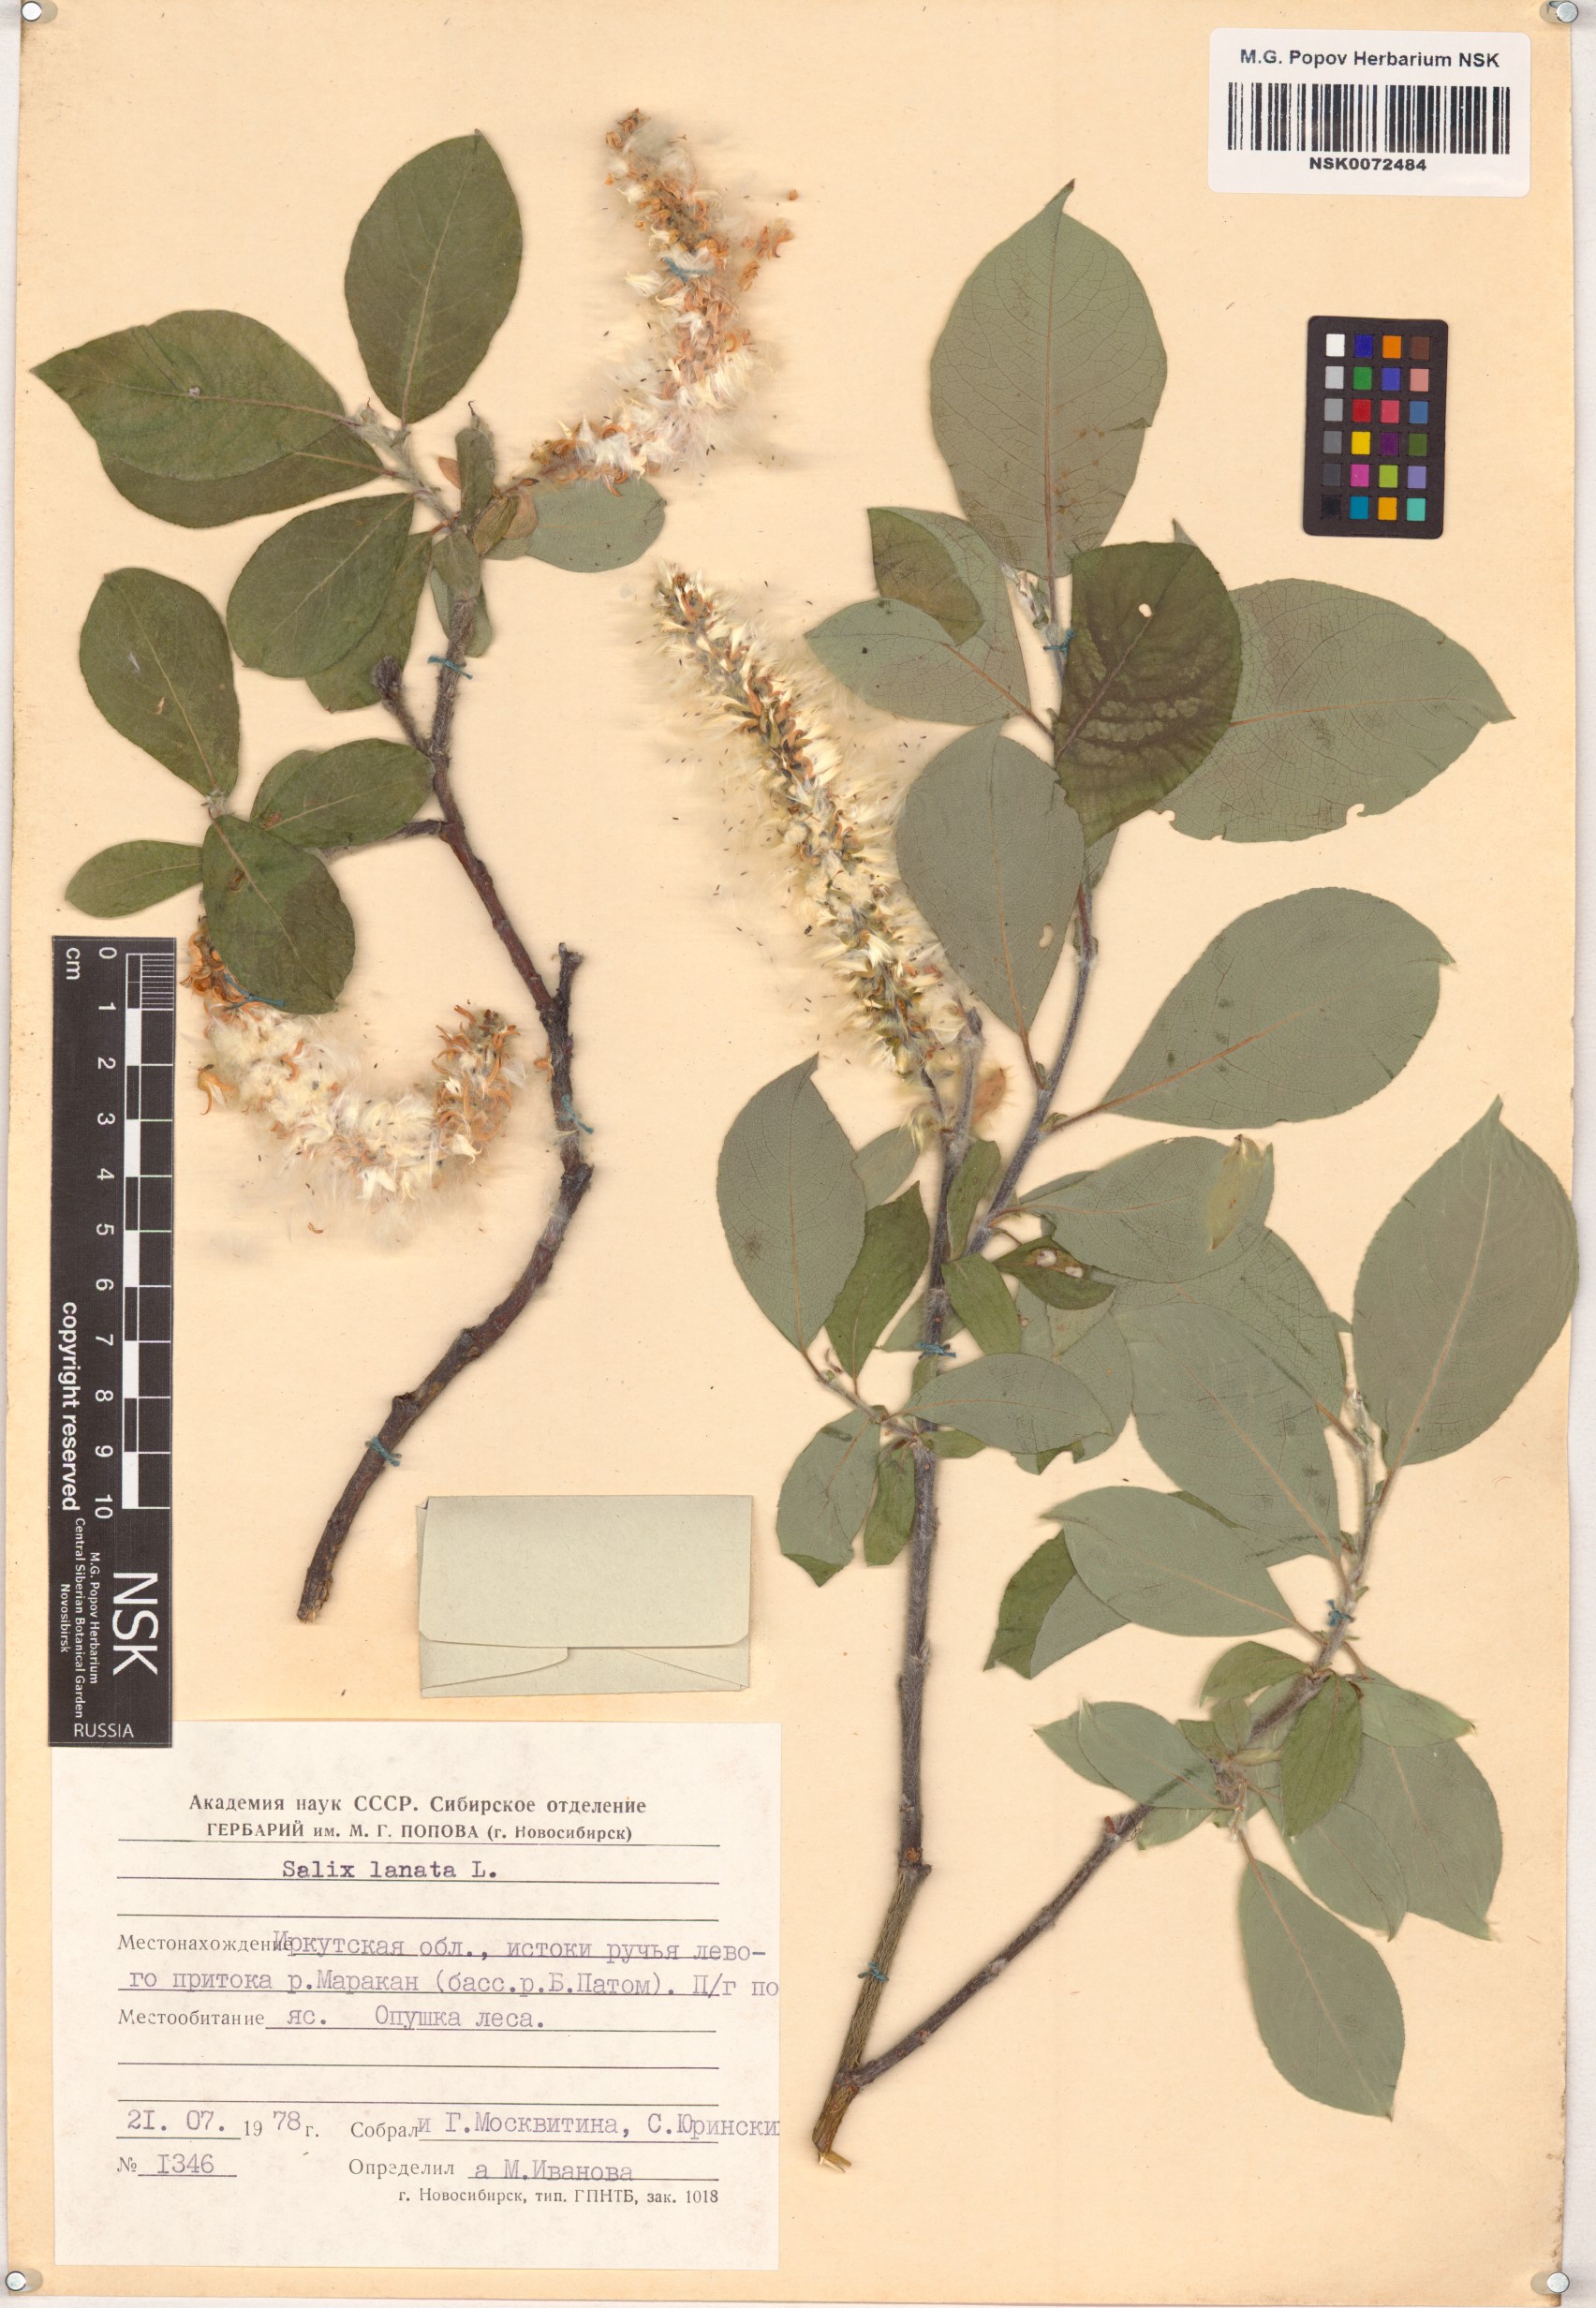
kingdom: Plantae
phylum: Tracheophyta
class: Magnoliopsida
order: Malpighiales
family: Salicaceae
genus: Salix
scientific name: Salix lanata
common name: Woolly willow
